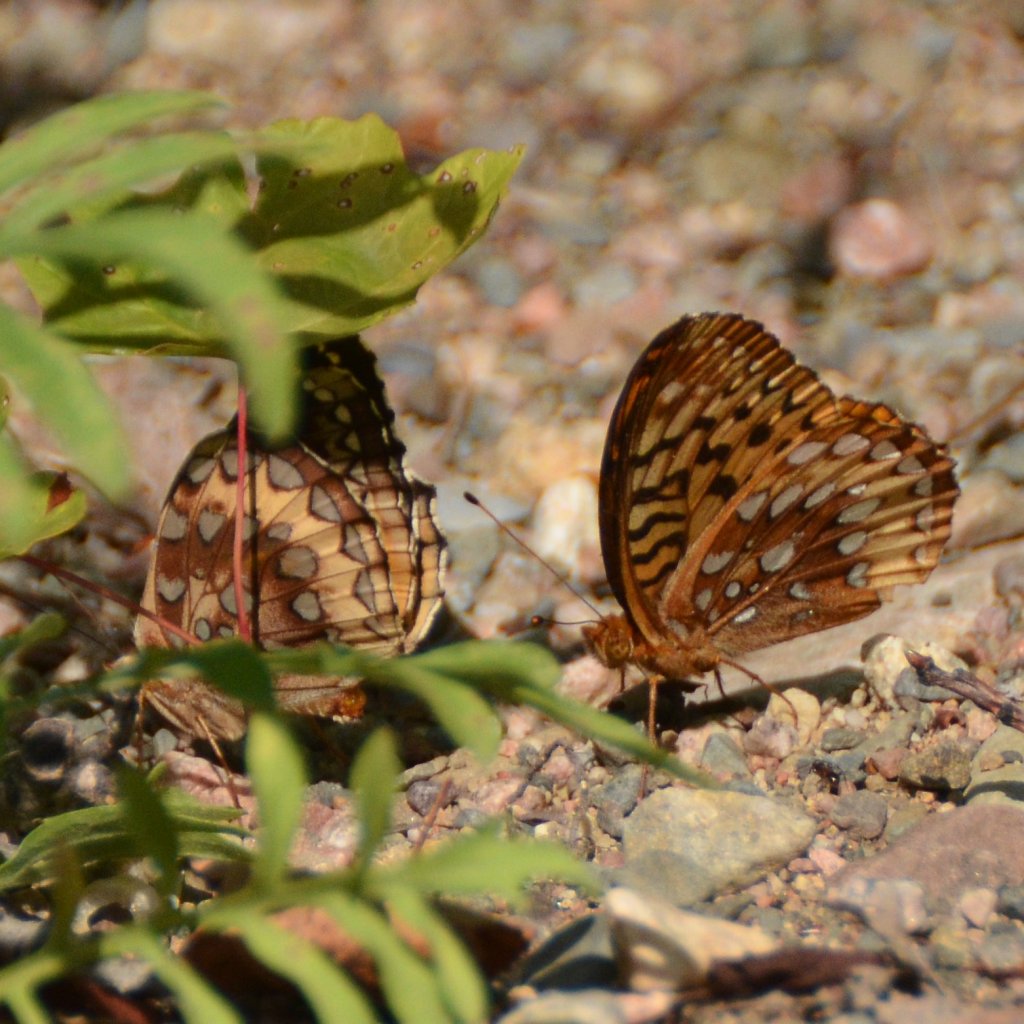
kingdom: Animalia
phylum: Arthropoda
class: Insecta
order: Lepidoptera
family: Nymphalidae
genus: Speyeria
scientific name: Speyeria cybele
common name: Great Spangled Fritillary
